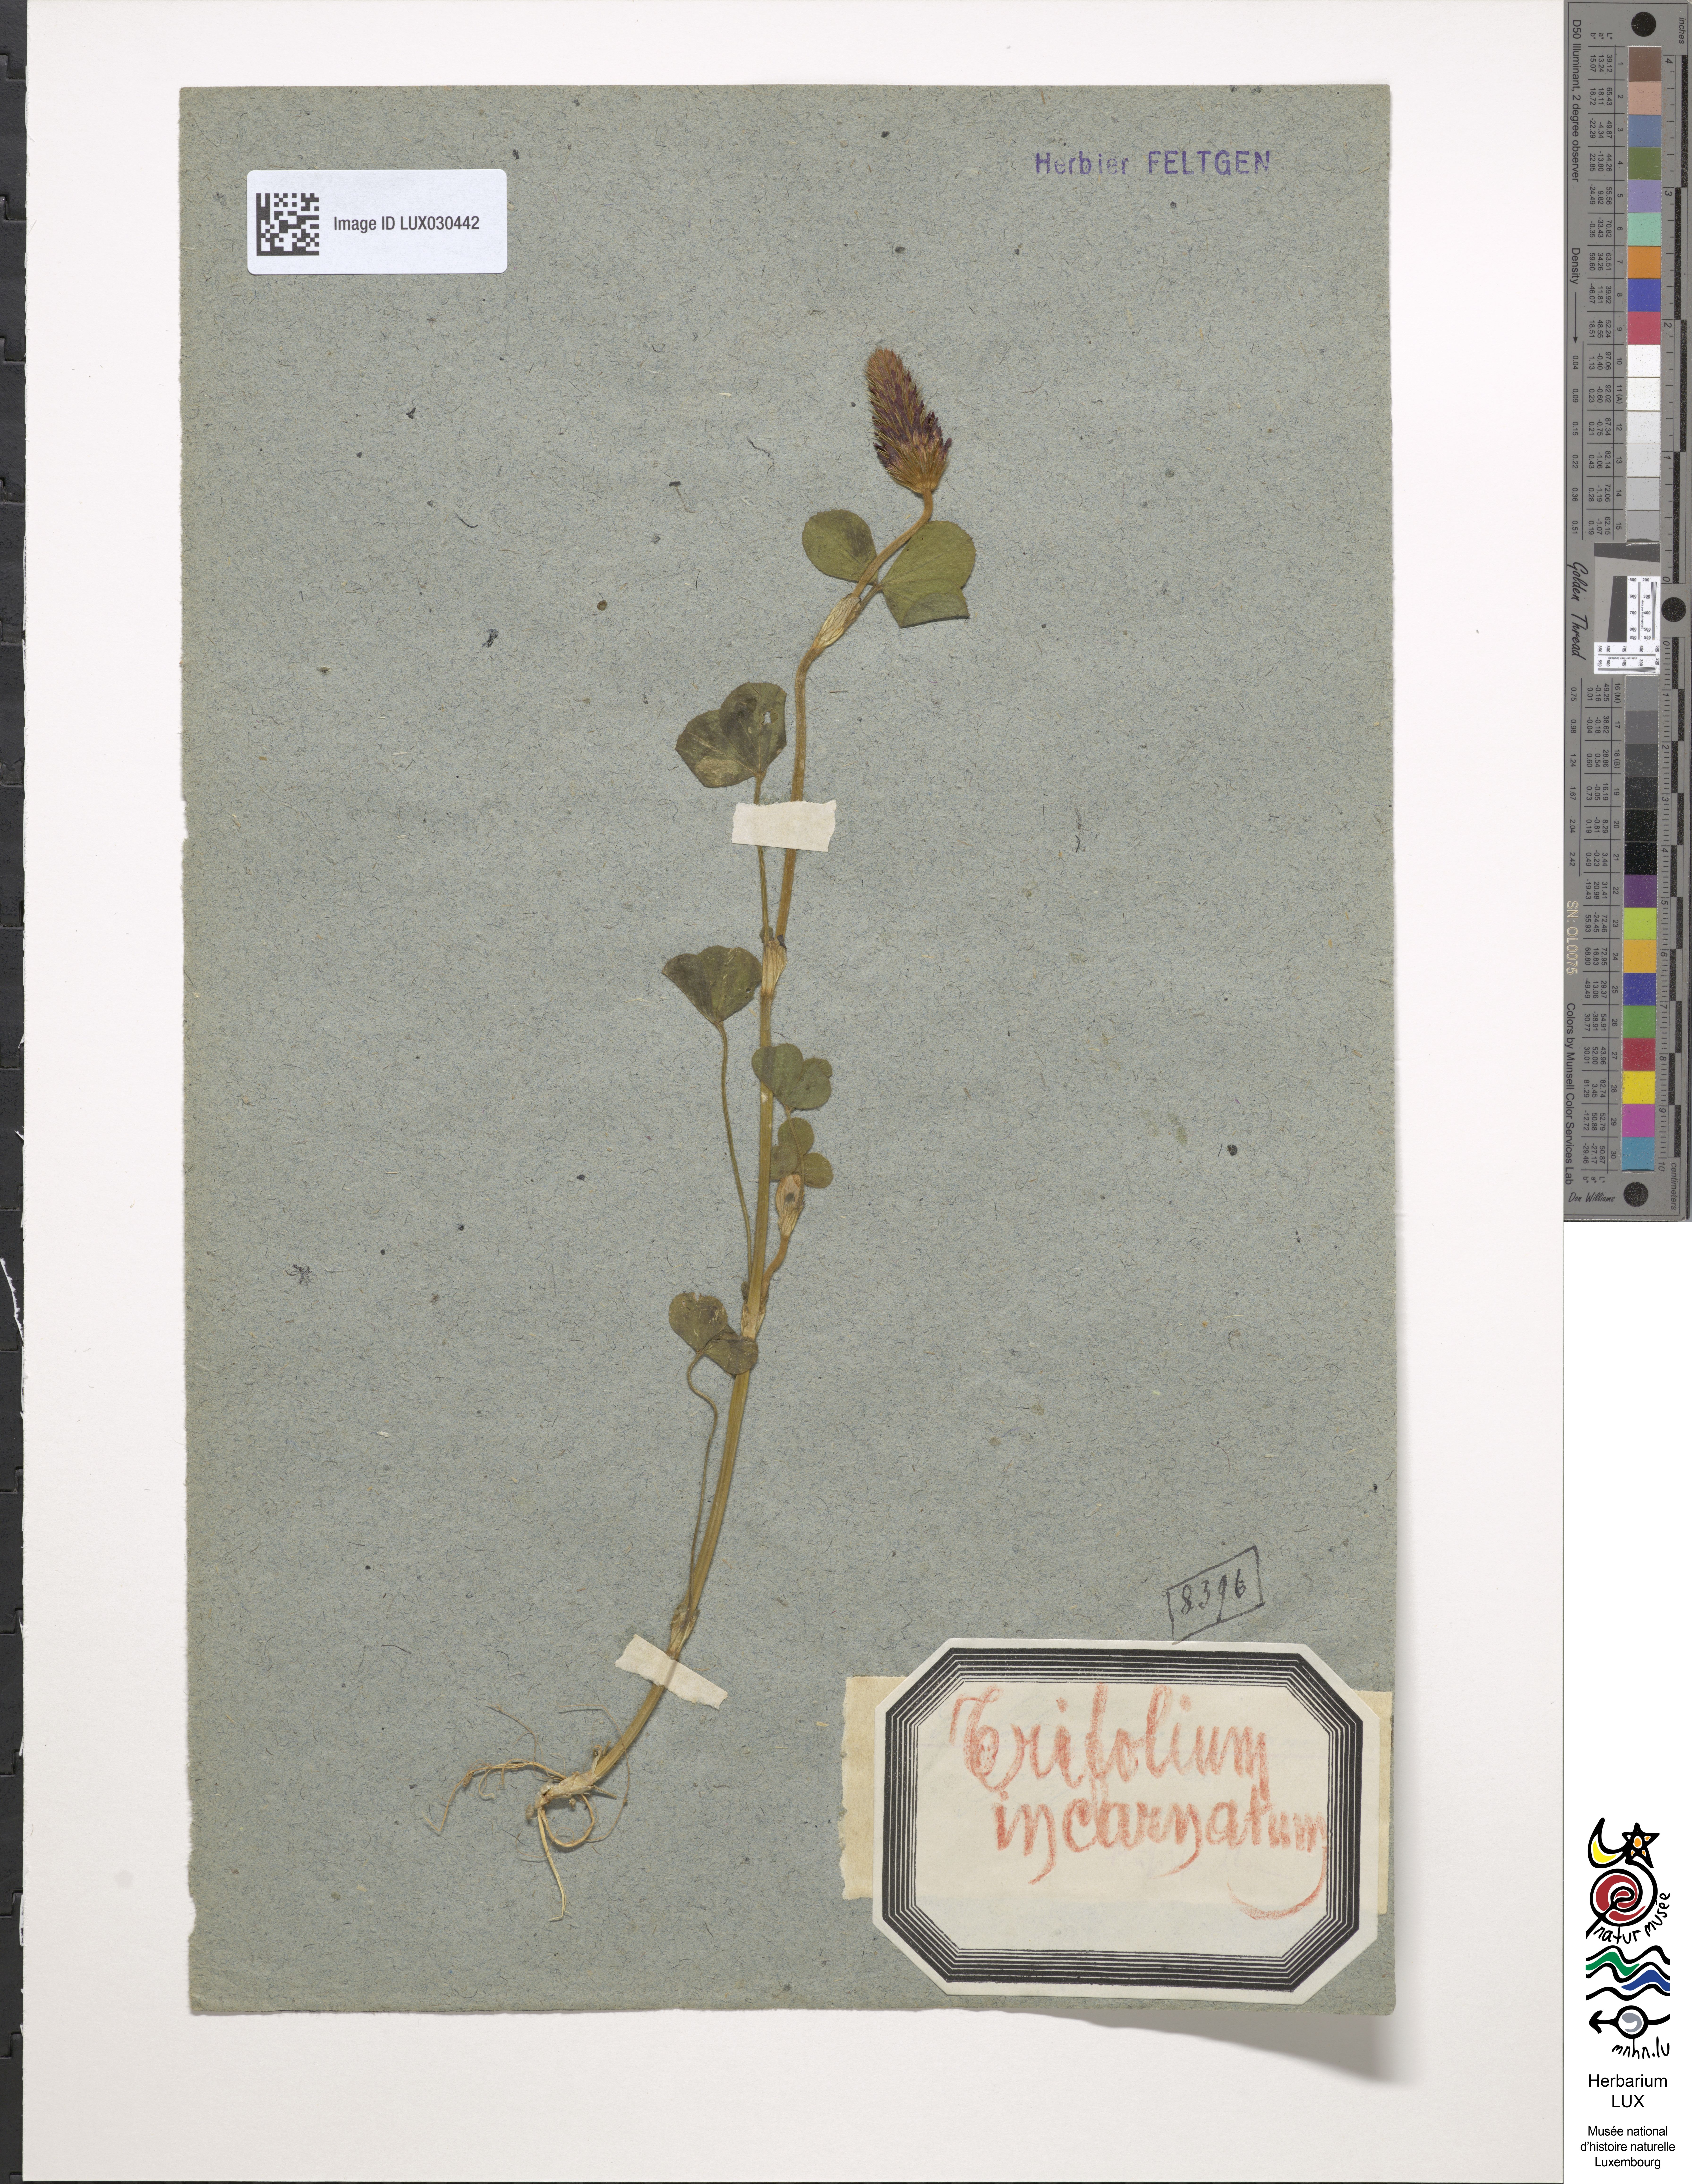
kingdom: Plantae
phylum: Tracheophyta
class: Magnoliopsida
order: Fabales
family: Fabaceae
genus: Trifolium
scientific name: Trifolium incarnatum
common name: Crimson clover
